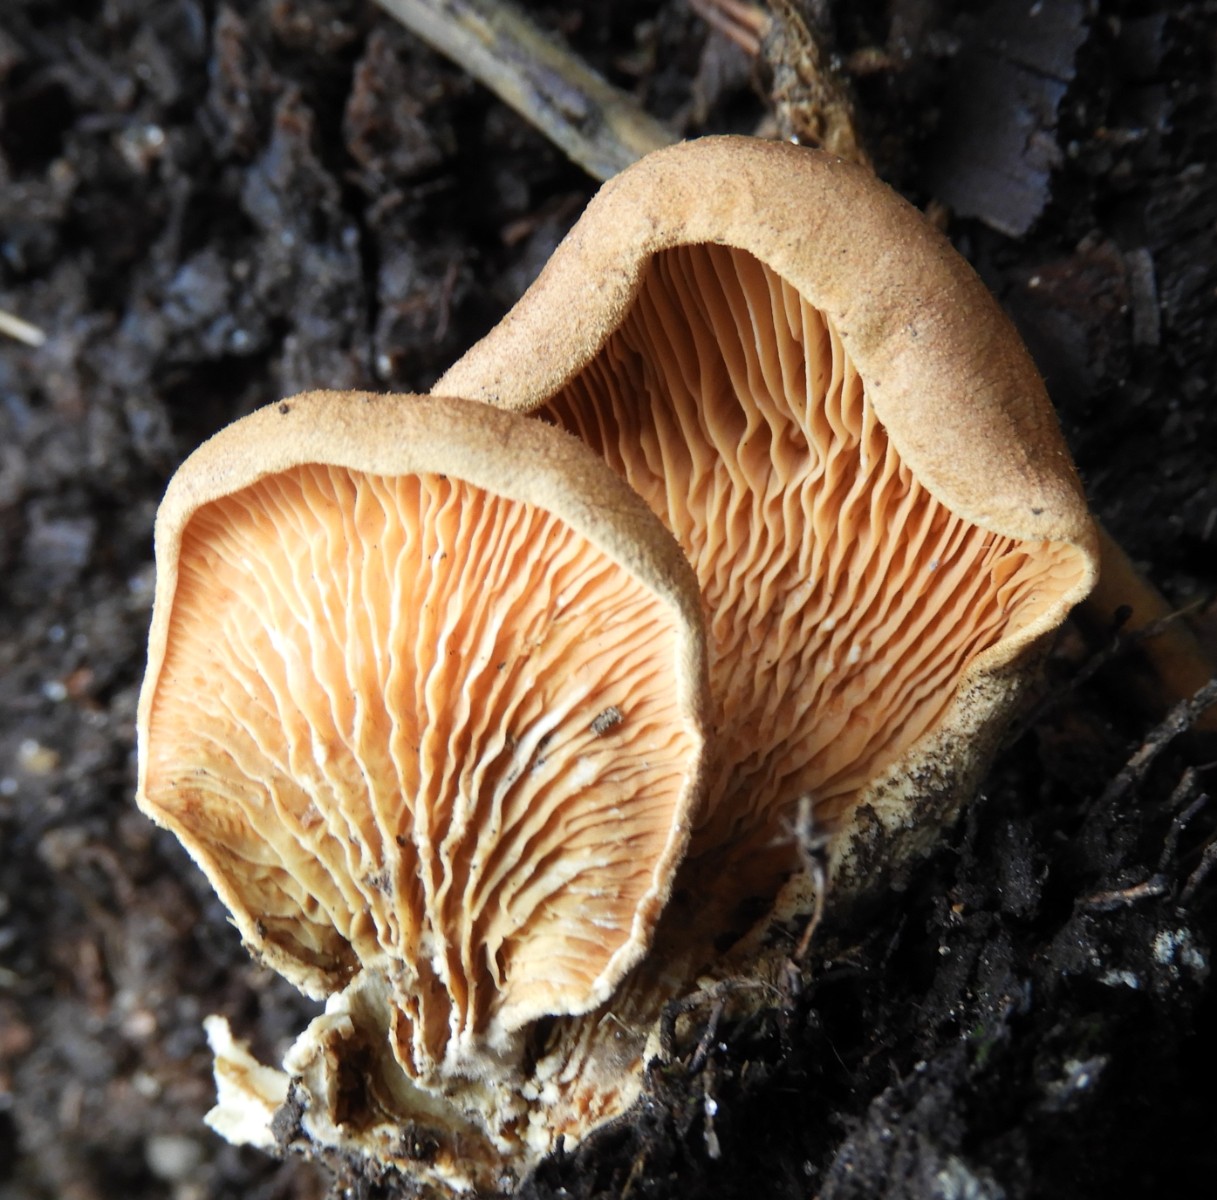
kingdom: Fungi
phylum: Basidiomycota
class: Agaricomycetes
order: Boletales
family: Tapinellaceae
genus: Tapinella
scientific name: Tapinella panuoides
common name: tømmer-viftesvamp
